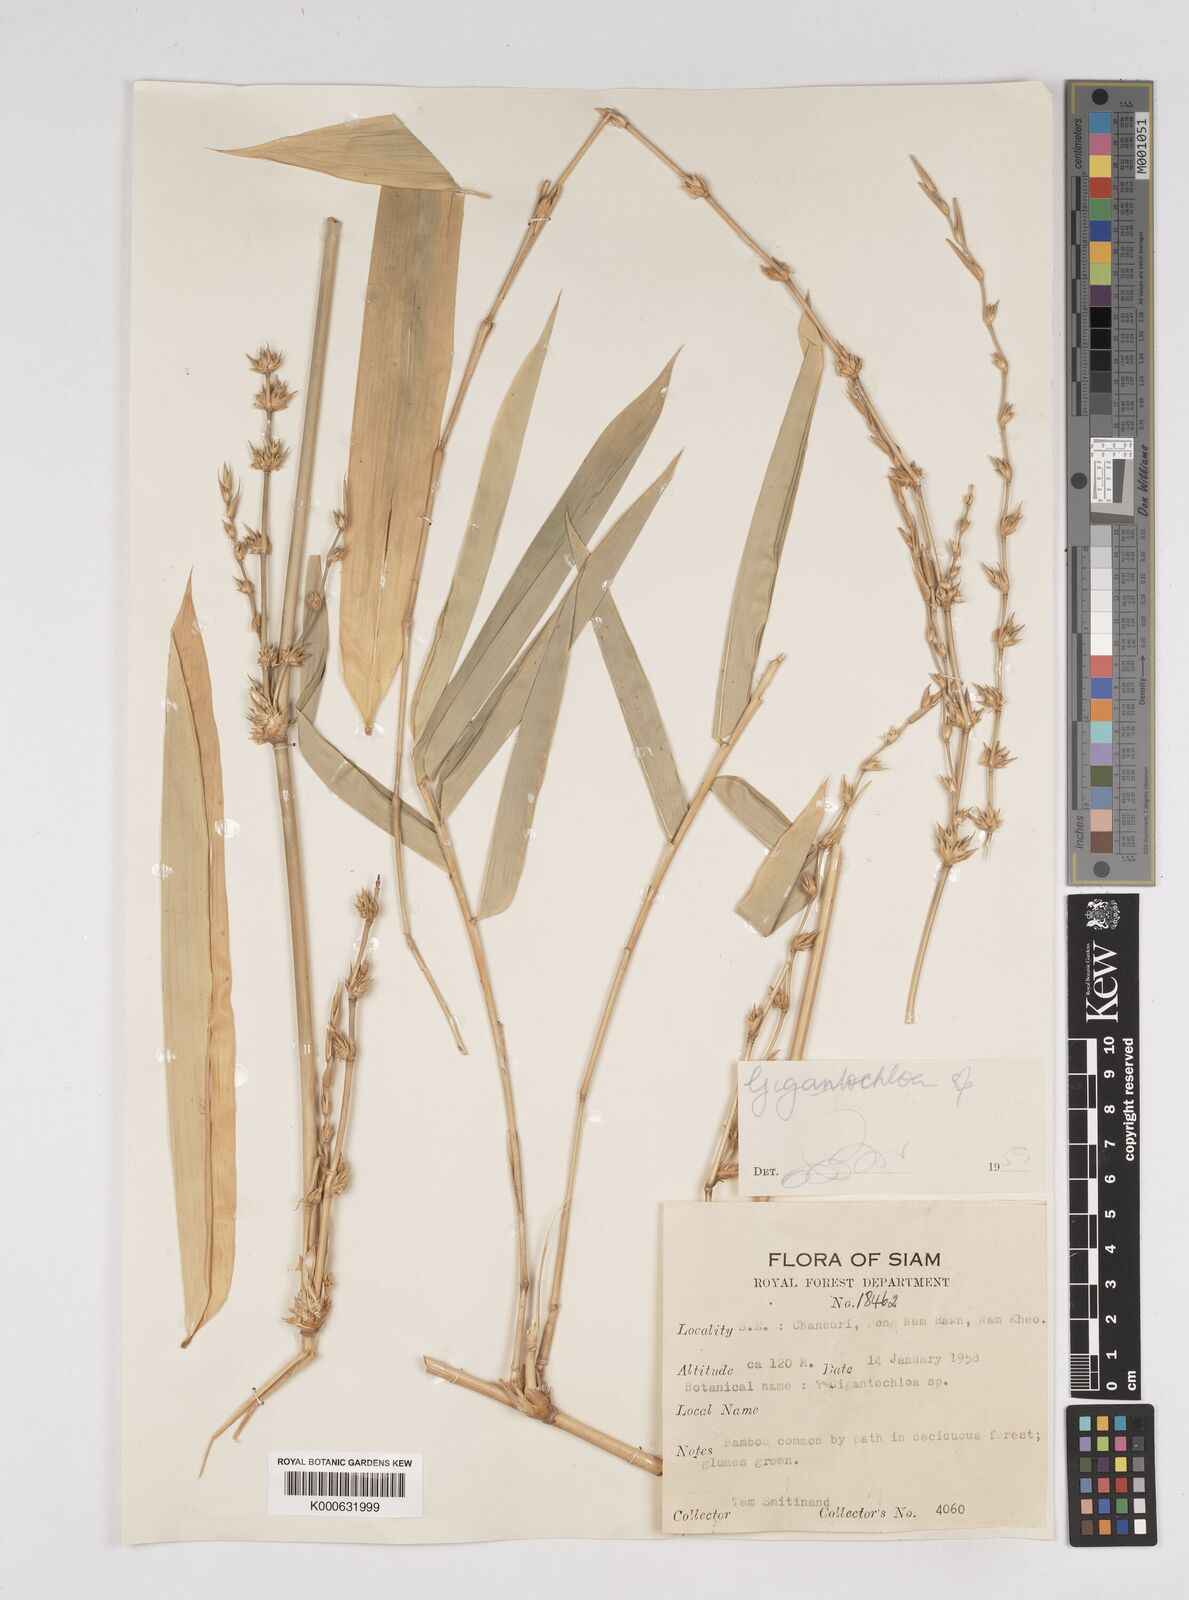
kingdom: Plantae
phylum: Tracheophyta
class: Liliopsida
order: Poales
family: Poaceae
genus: Dendrocalamus
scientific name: Dendrocalamus
